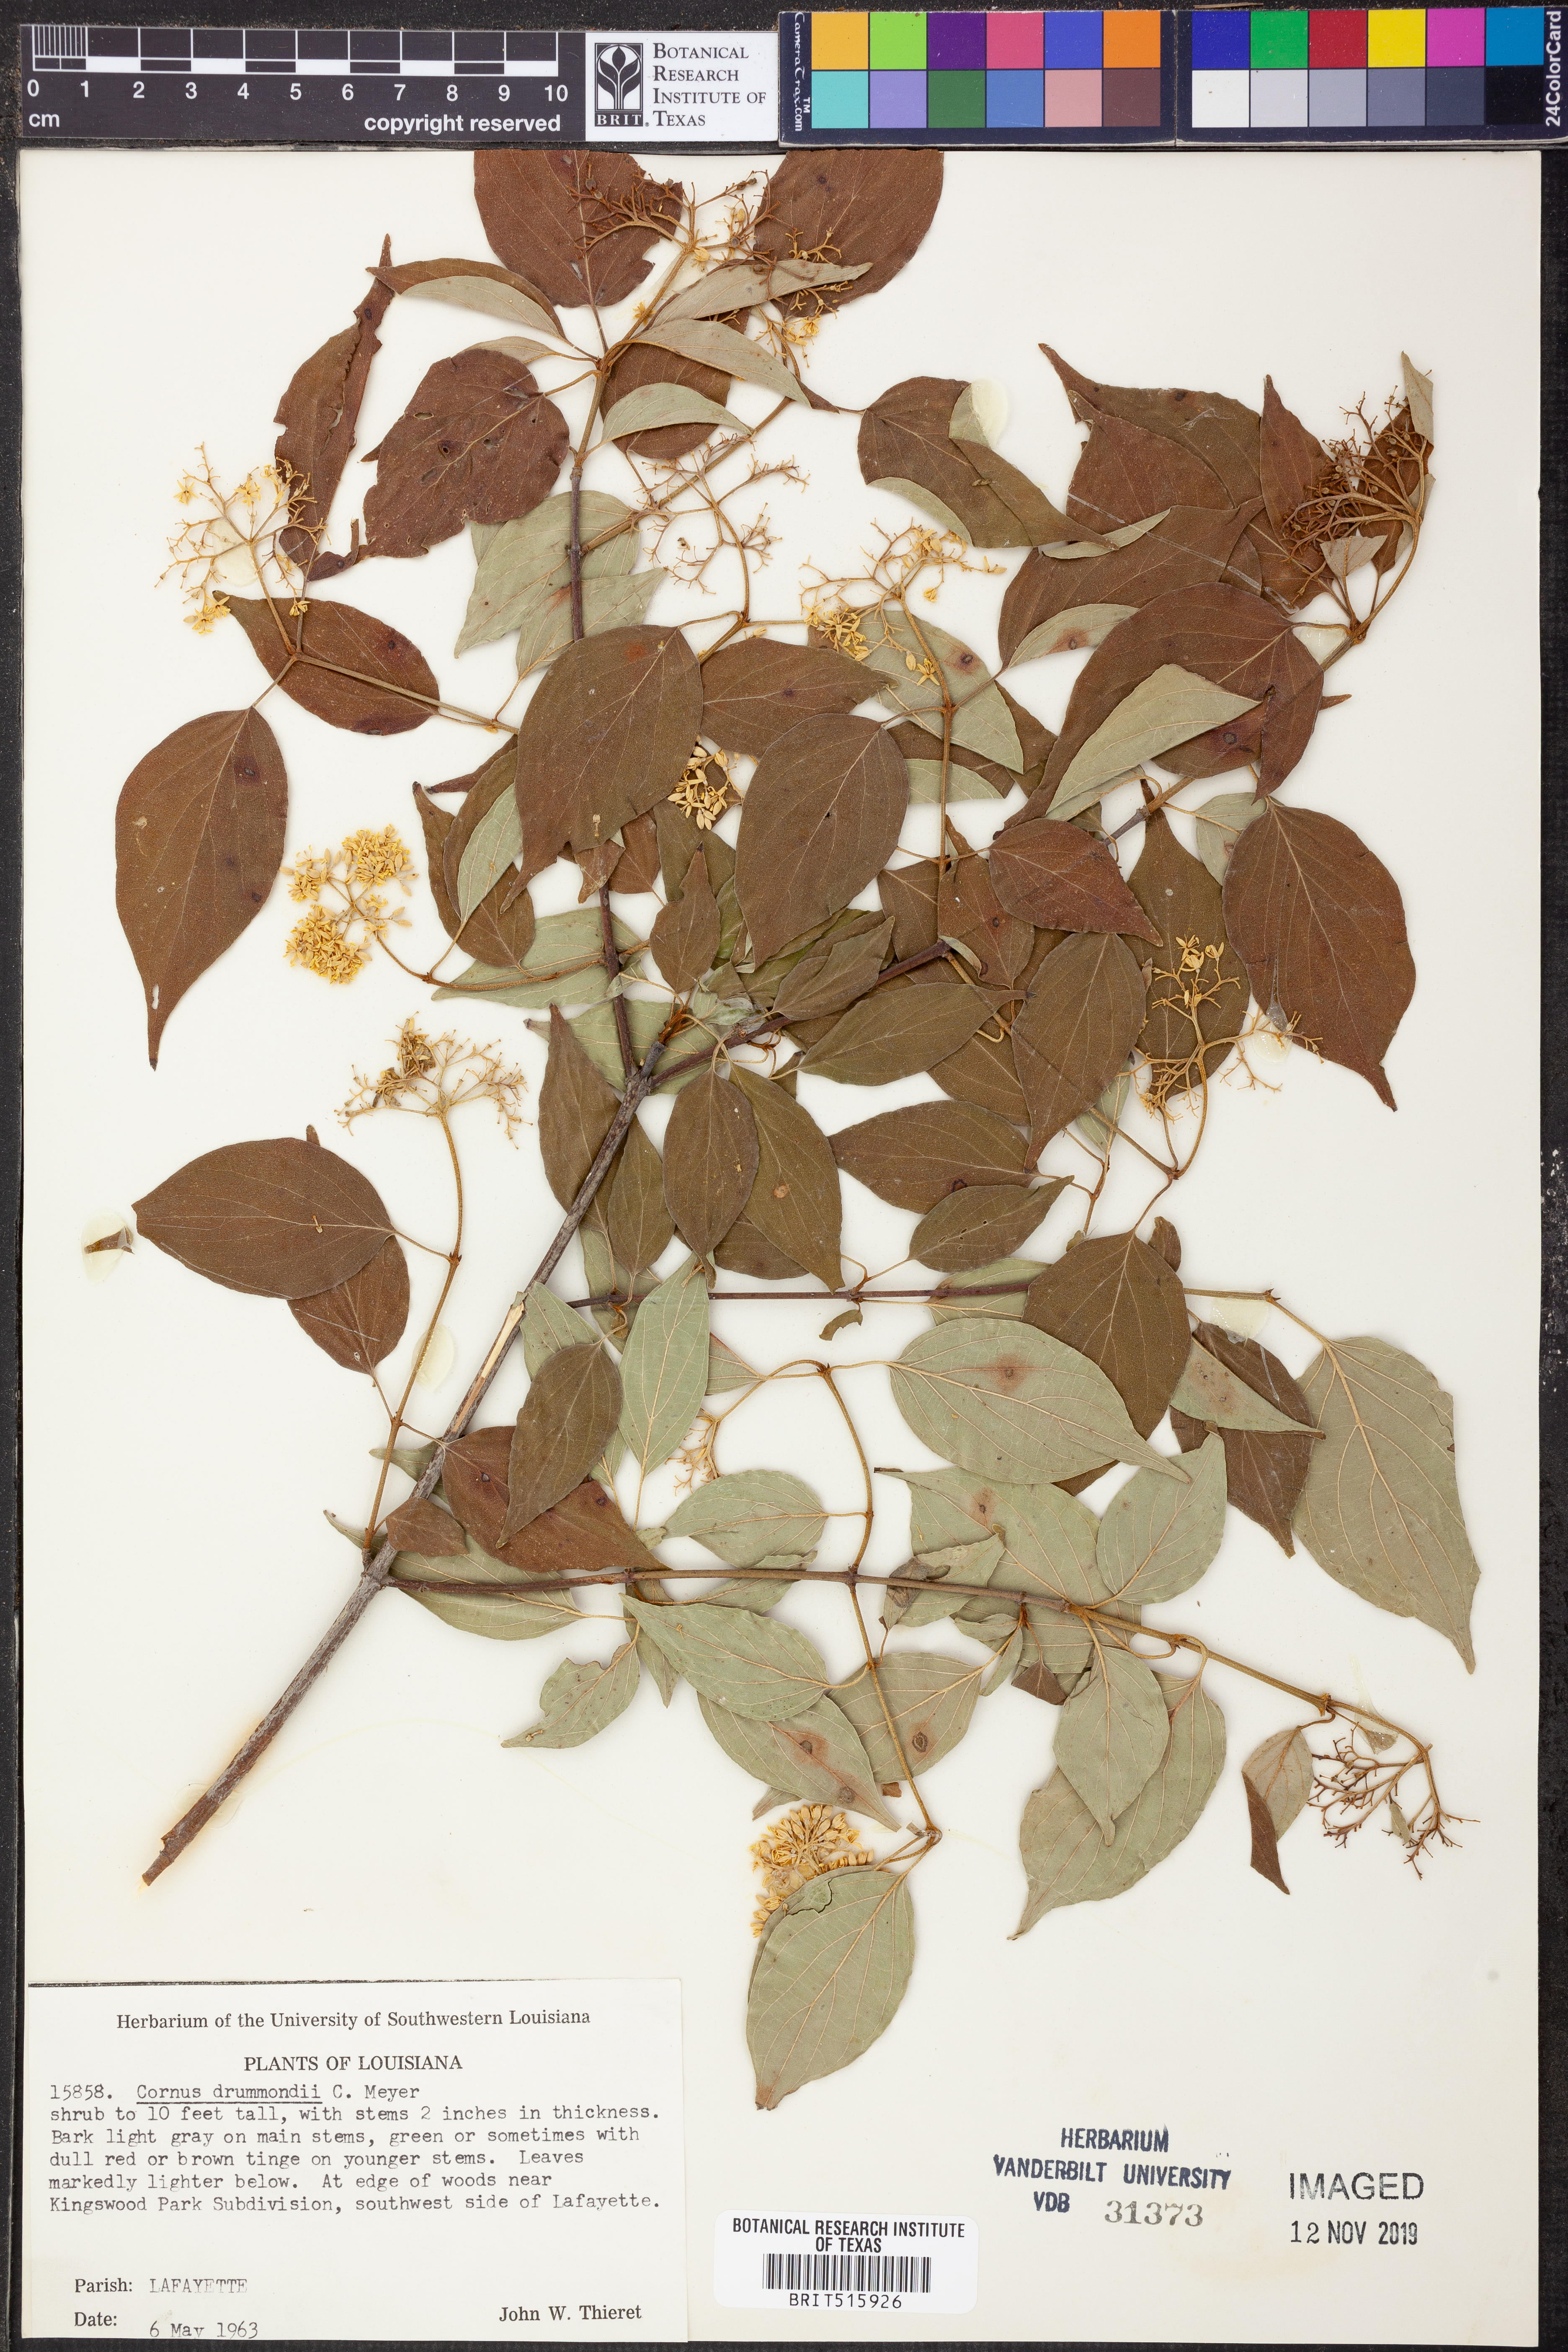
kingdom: Plantae
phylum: Tracheophyta
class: Magnoliopsida
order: Cornales
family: Cornaceae
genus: Cornus
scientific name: Cornus drummondii
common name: Rough-leaf dogwood
